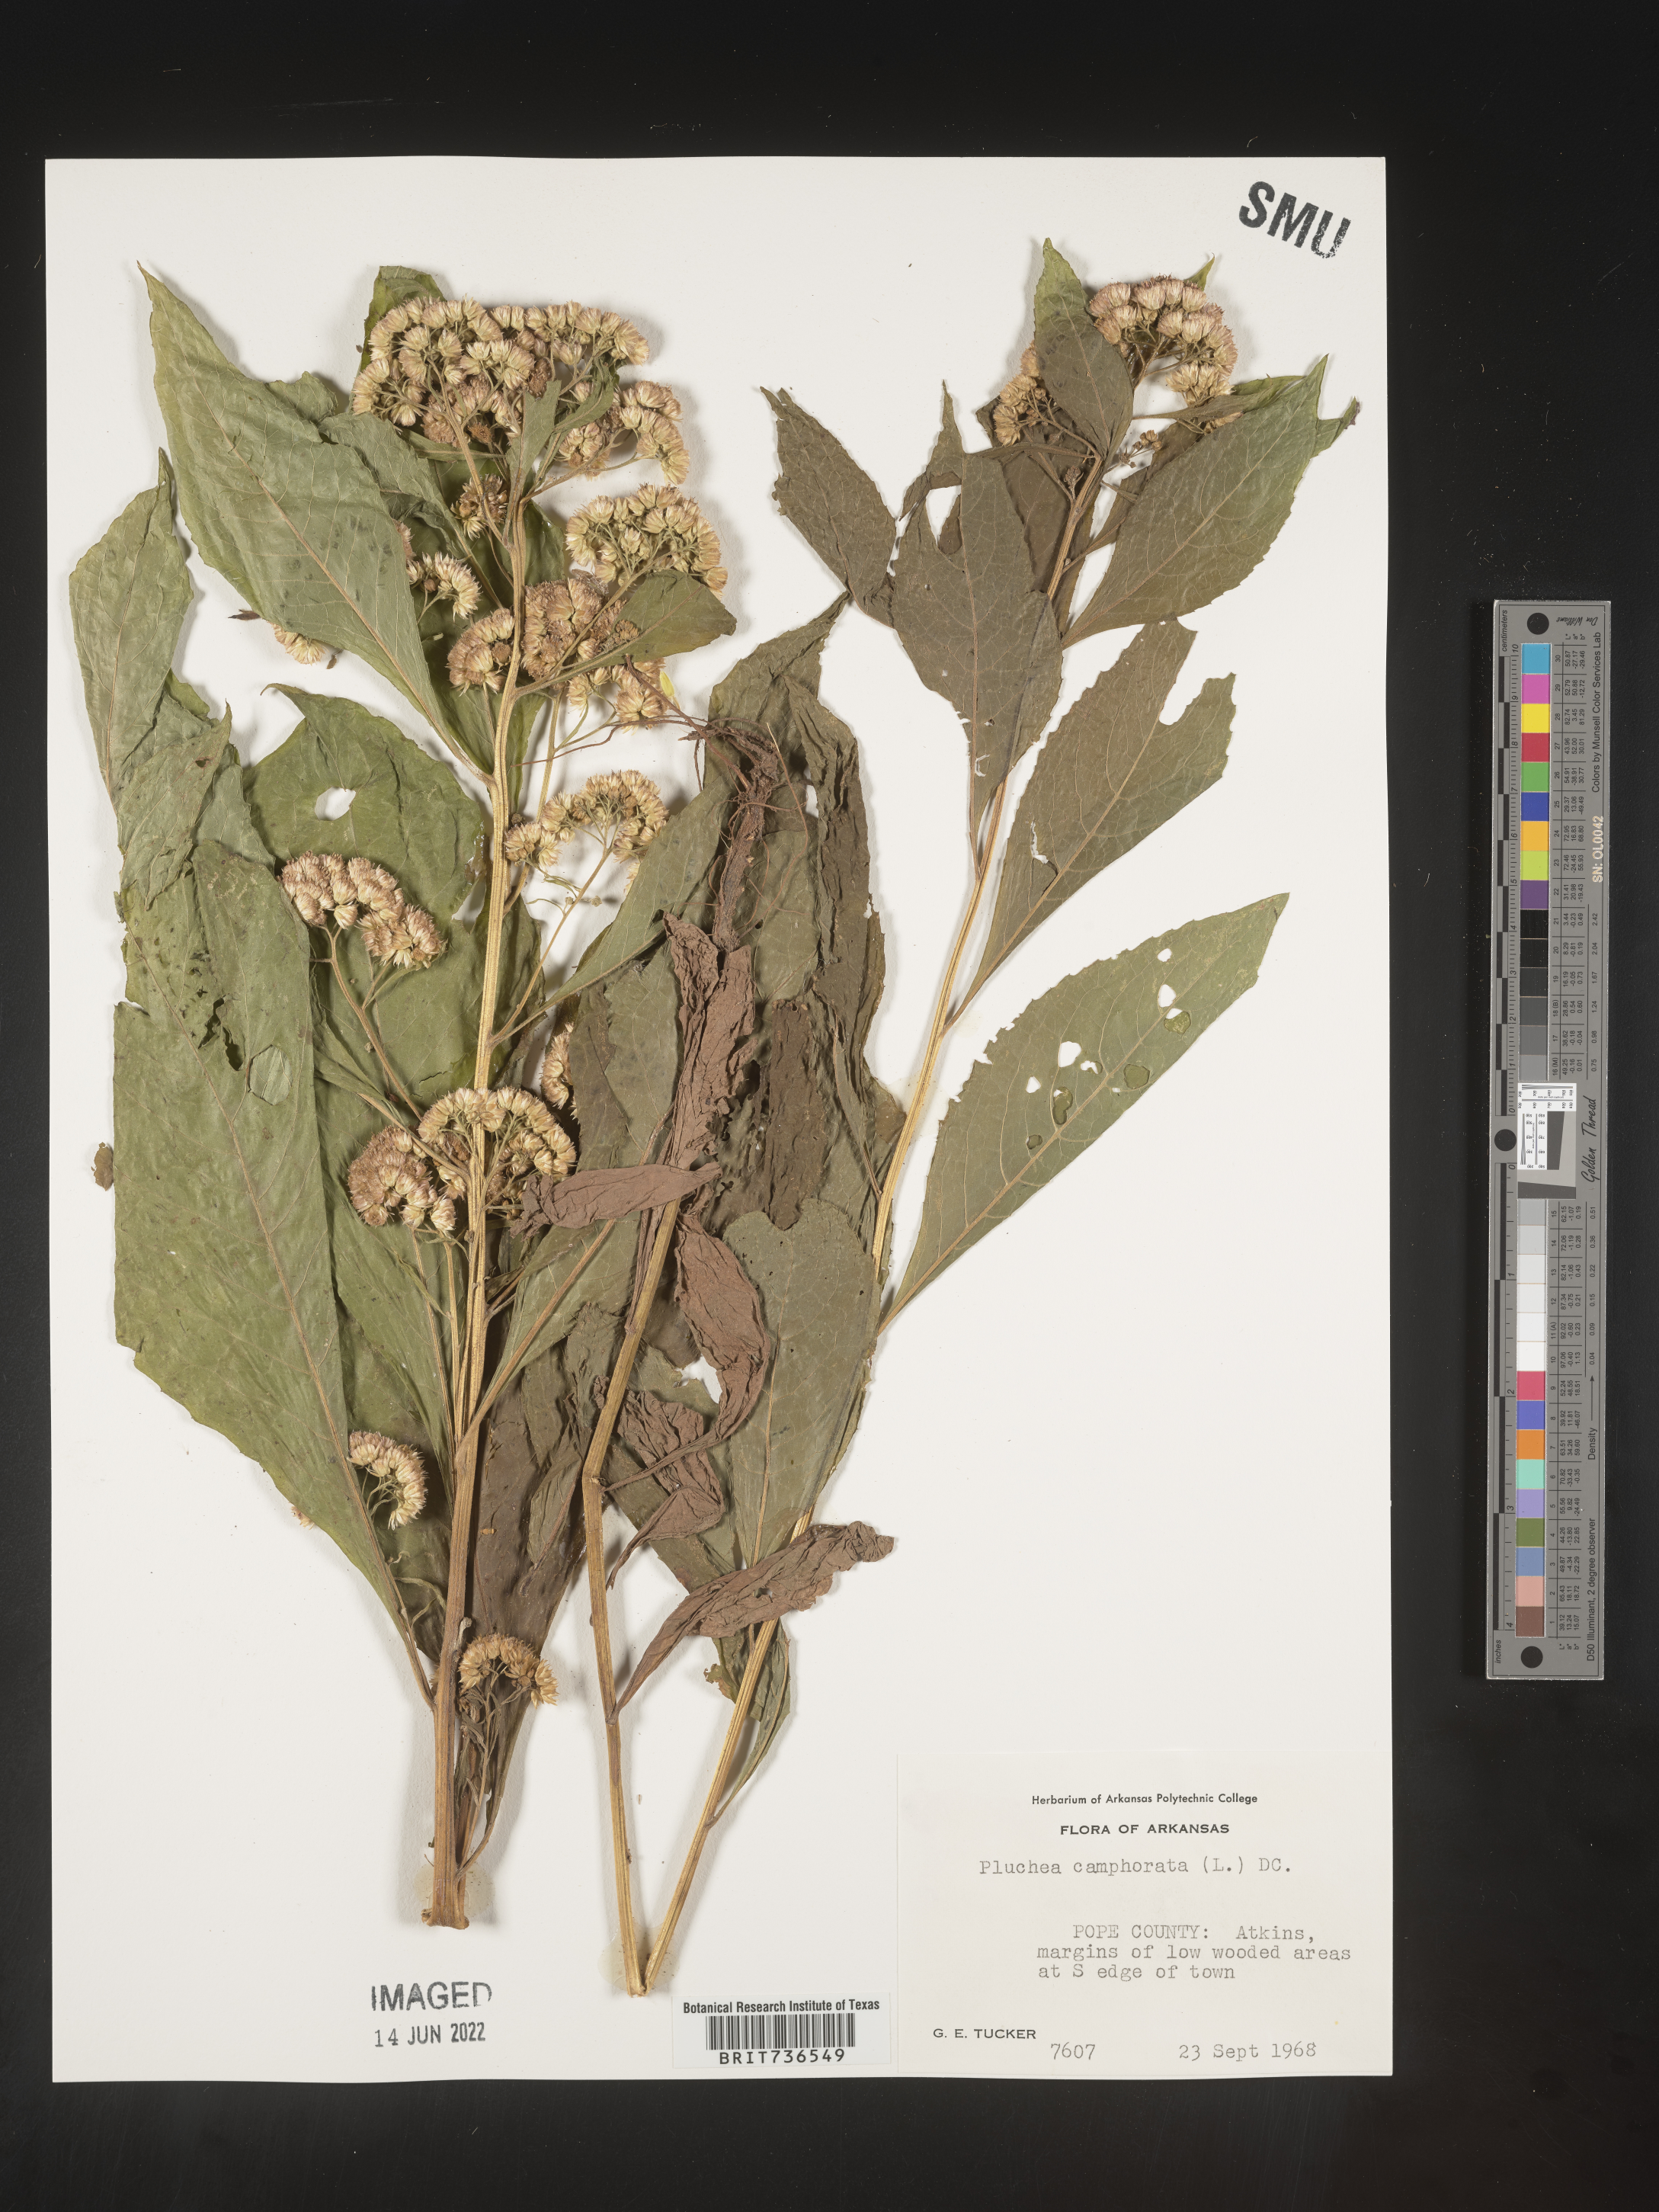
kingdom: Plantae
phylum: Tracheophyta
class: Magnoliopsida
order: Asterales
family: Asteraceae
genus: Pluchea
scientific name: Pluchea camphorata
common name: Camphor pluchea
